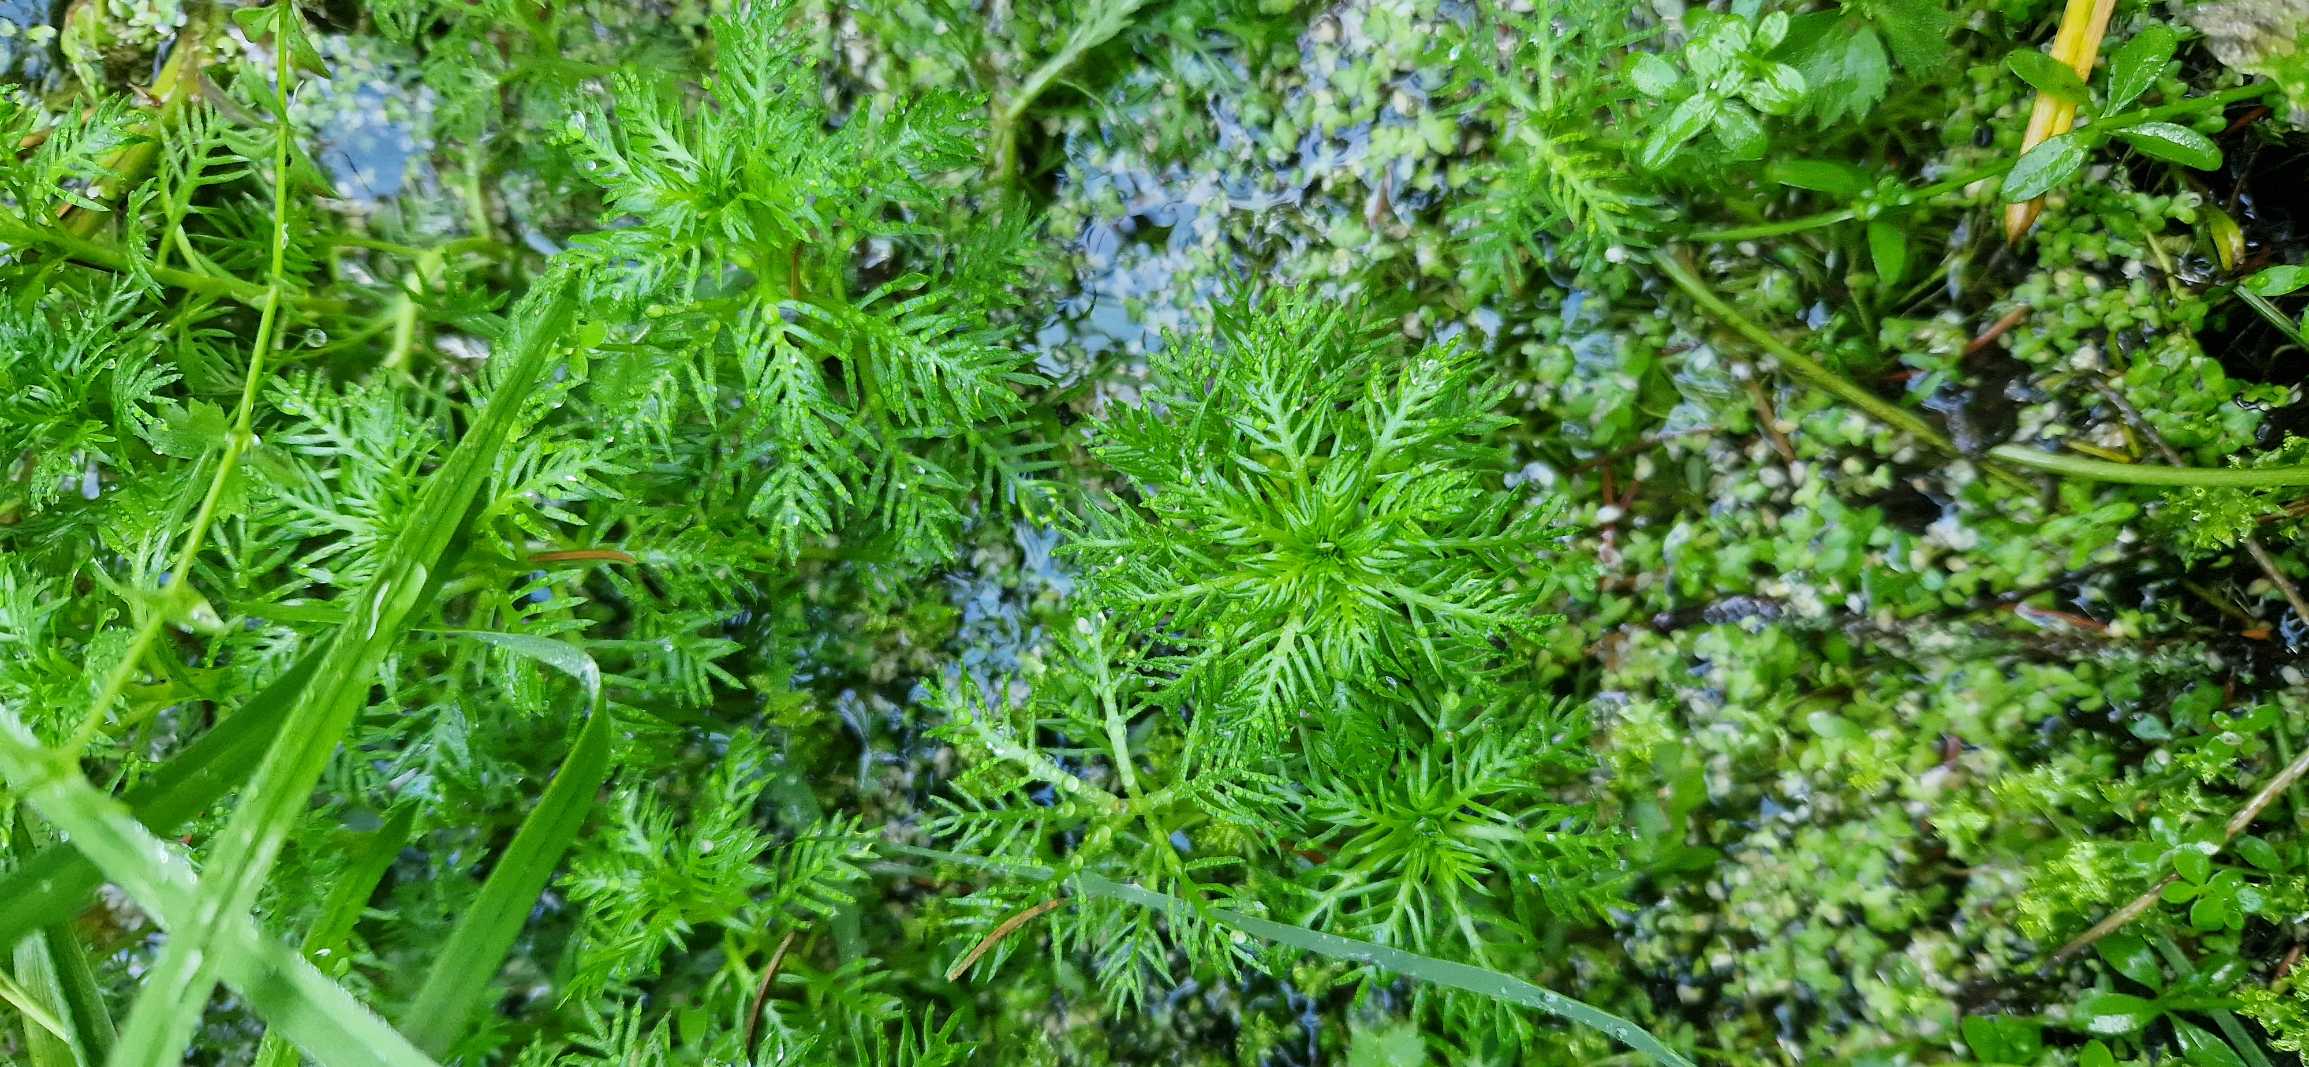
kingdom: Plantae
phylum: Tracheophyta
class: Magnoliopsida
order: Ericales
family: Primulaceae
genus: Hottonia
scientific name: Hottonia palustris
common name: Vandrøllike
